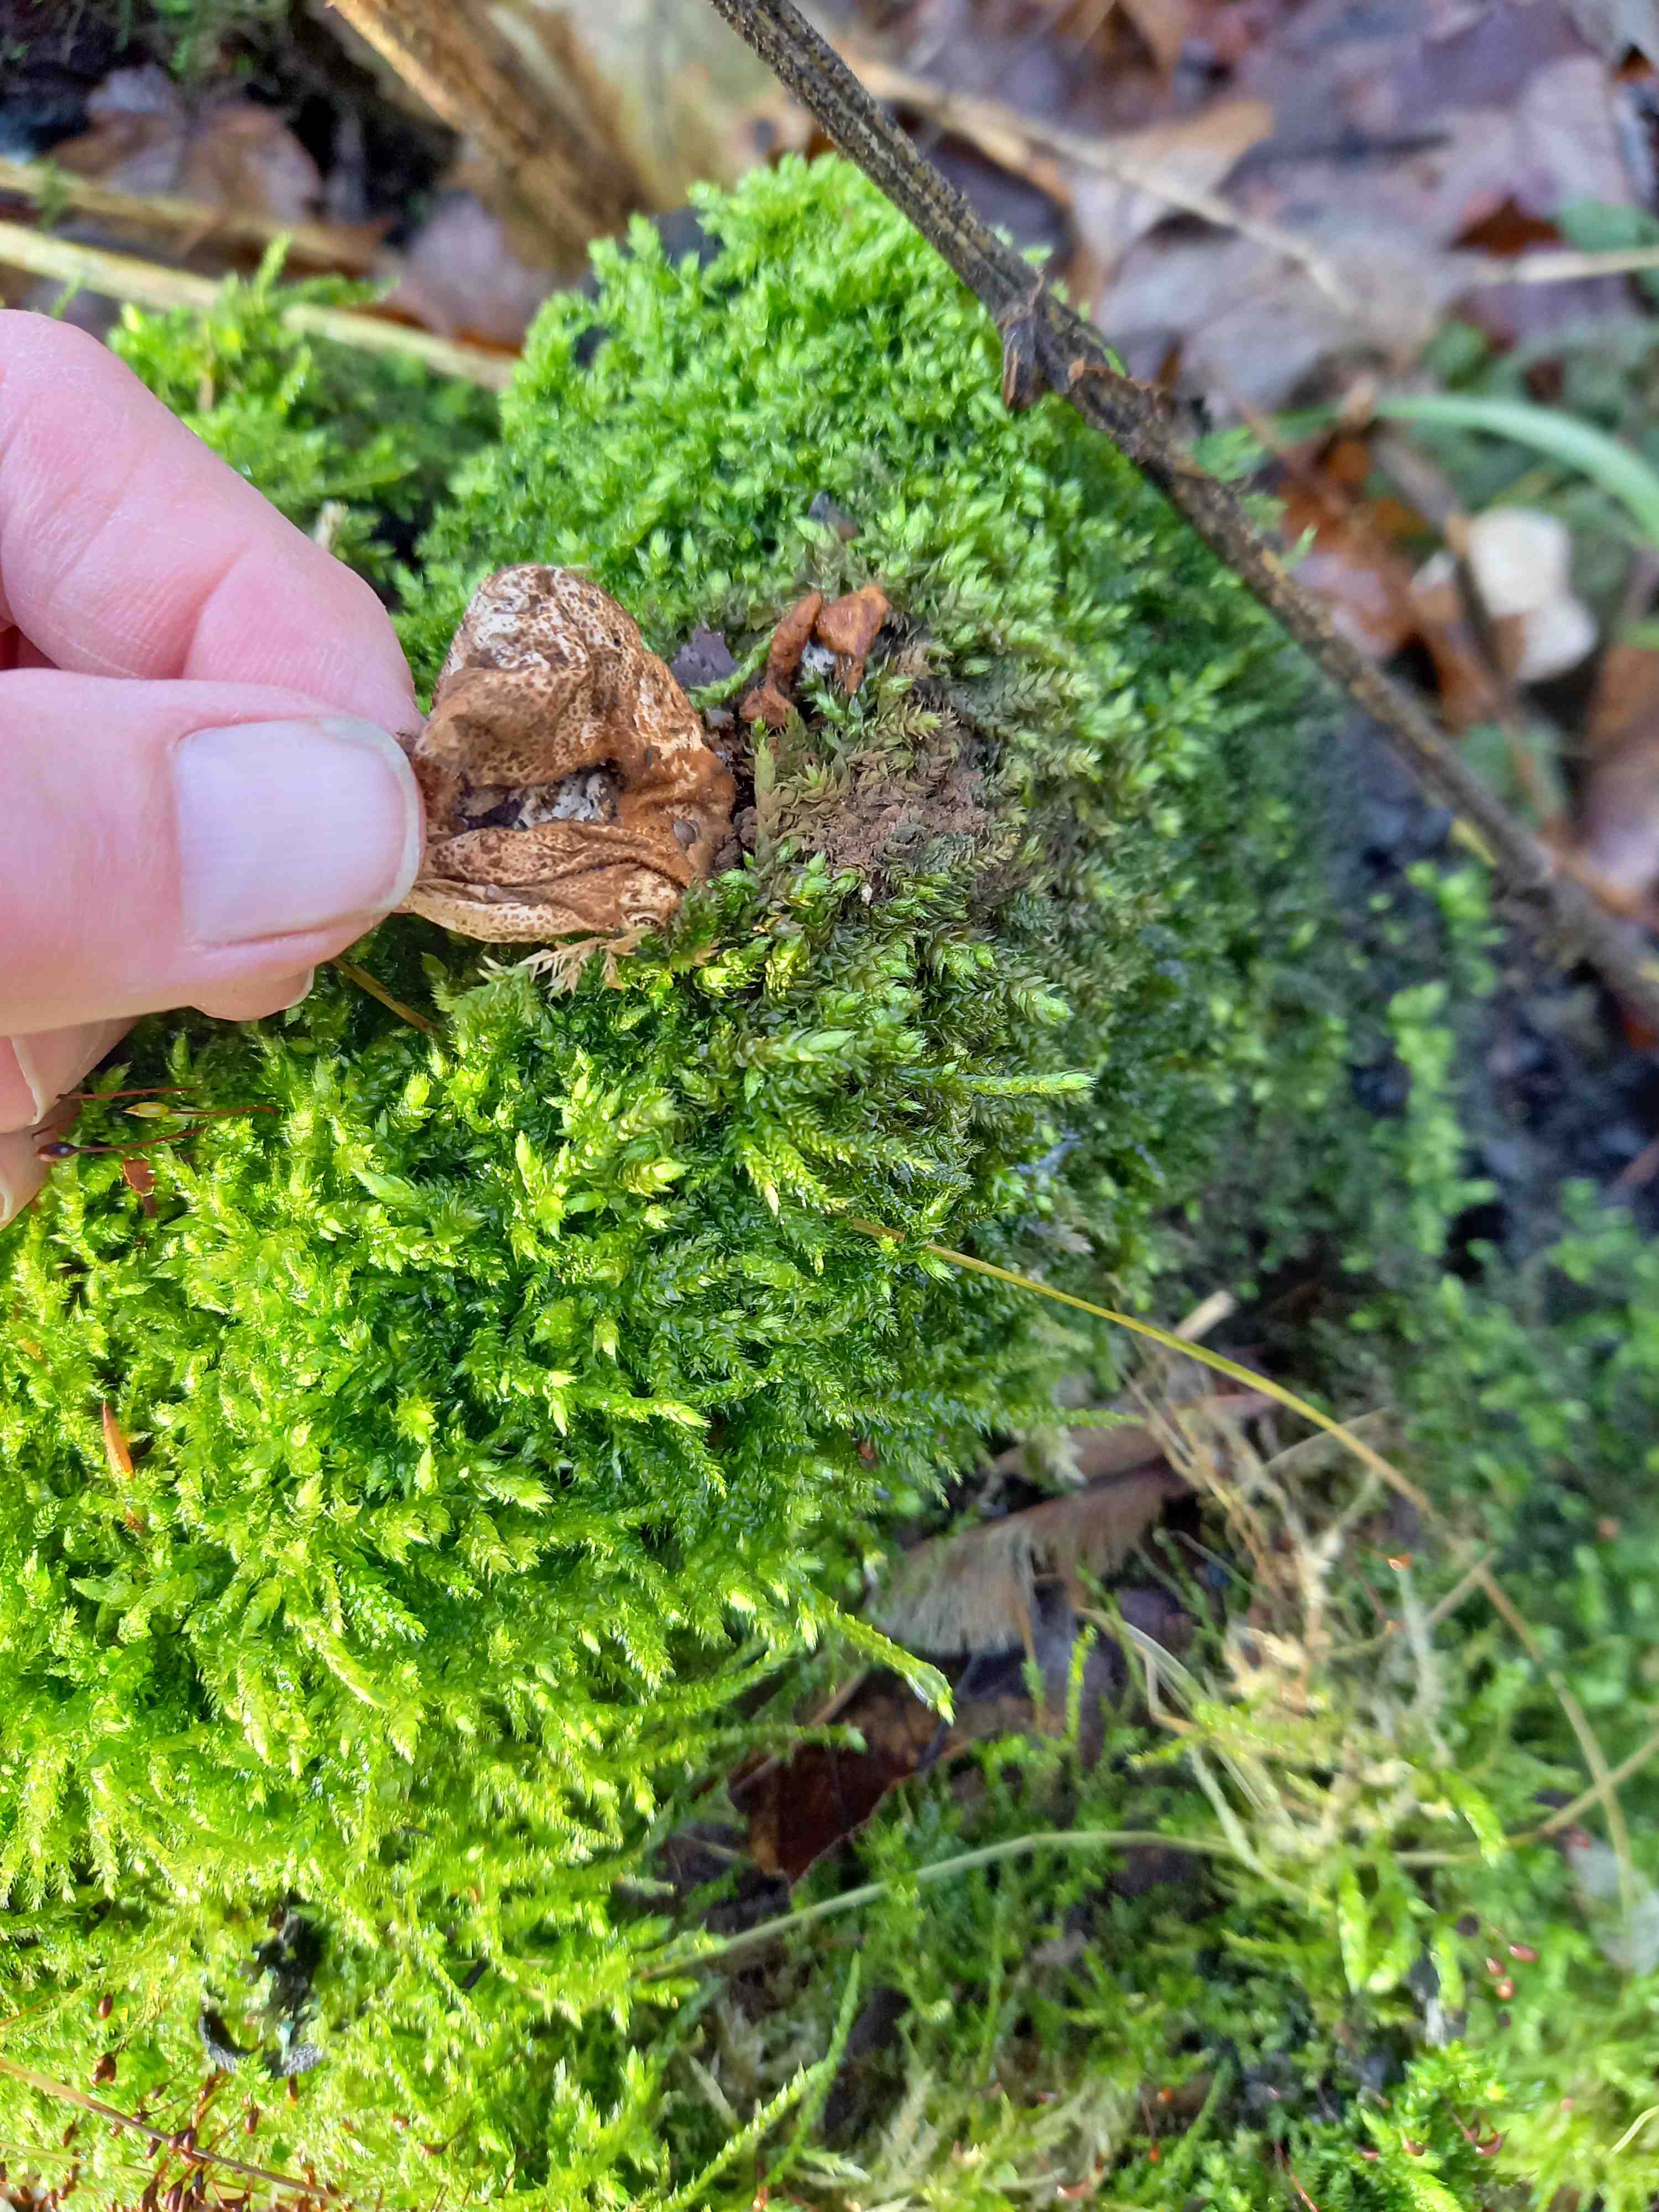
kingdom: Fungi
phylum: Basidiomycota
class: Agaricomycetes
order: Agaricales
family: Lycoperdaceae
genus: Apioperdon
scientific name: Apioperdon pyriforme
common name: pære-støvbold
